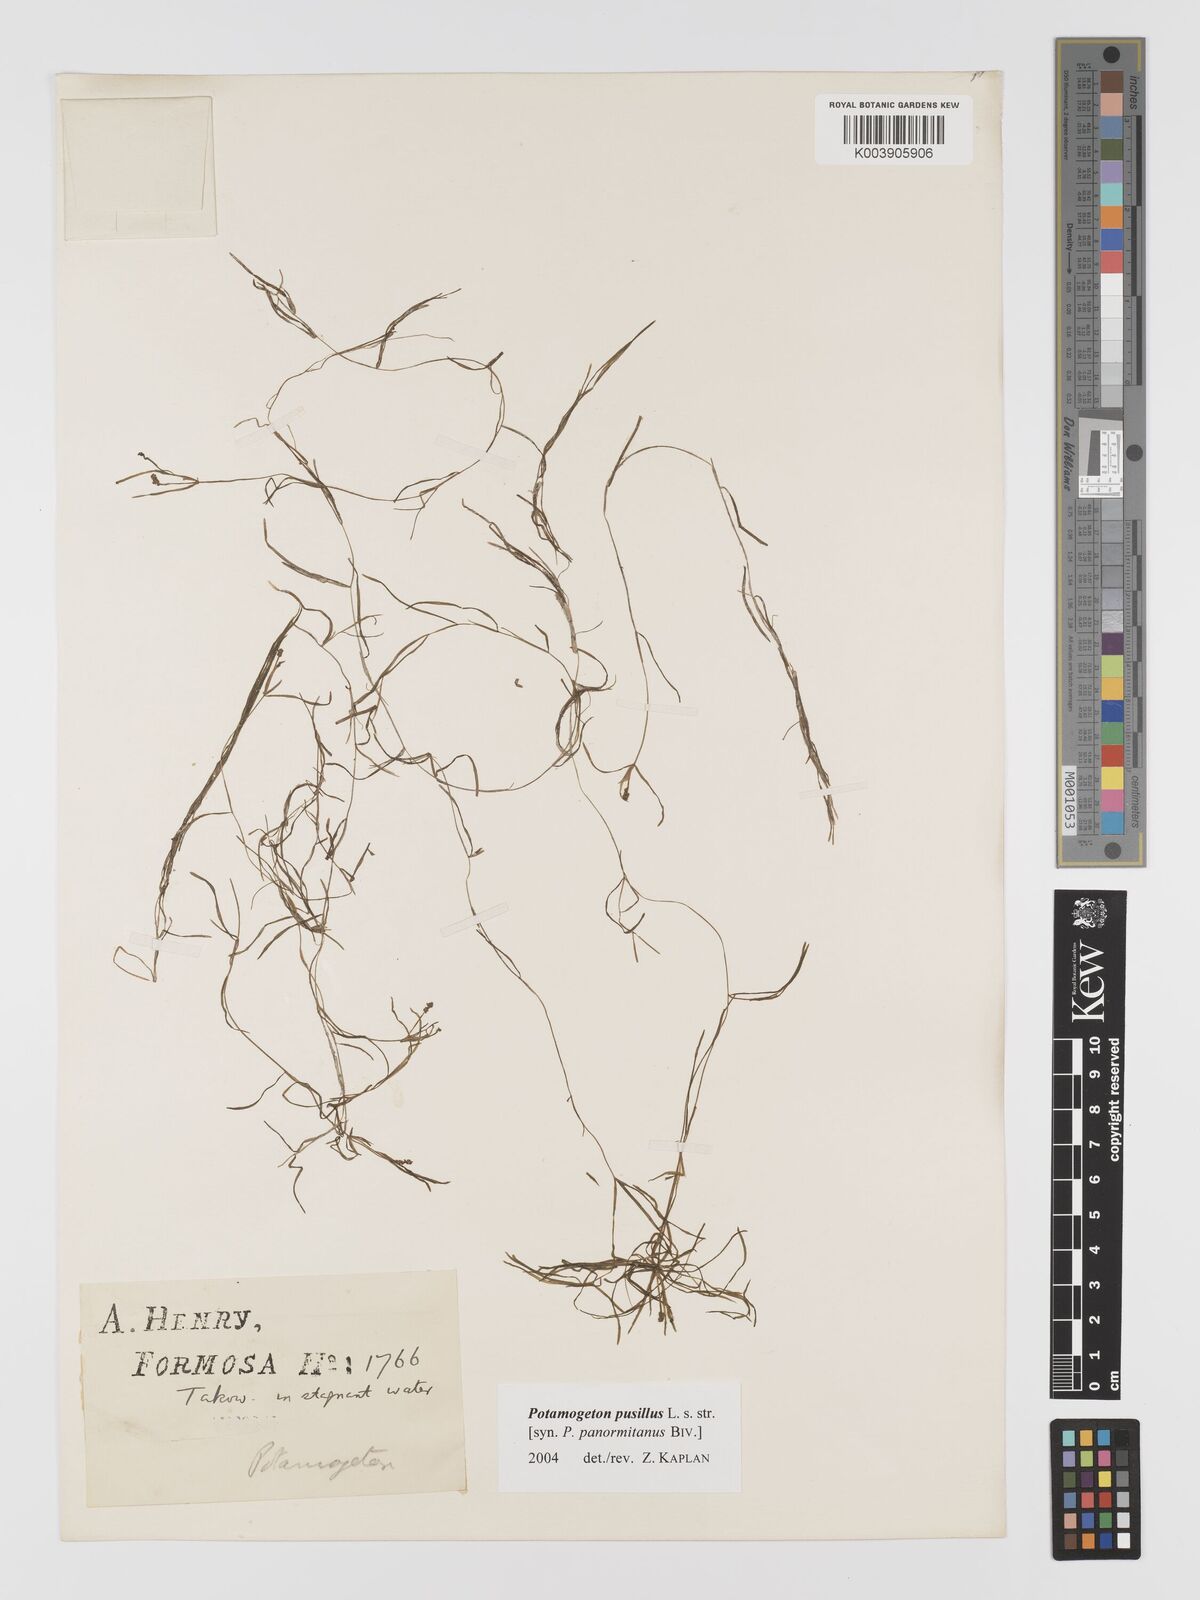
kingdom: Plantae
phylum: Tracheophyta
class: Liliopsida
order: Alismatales
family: Potamogetonaceae
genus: Potamogeton
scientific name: Potamogeton pusillus
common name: Lesser pondweed
